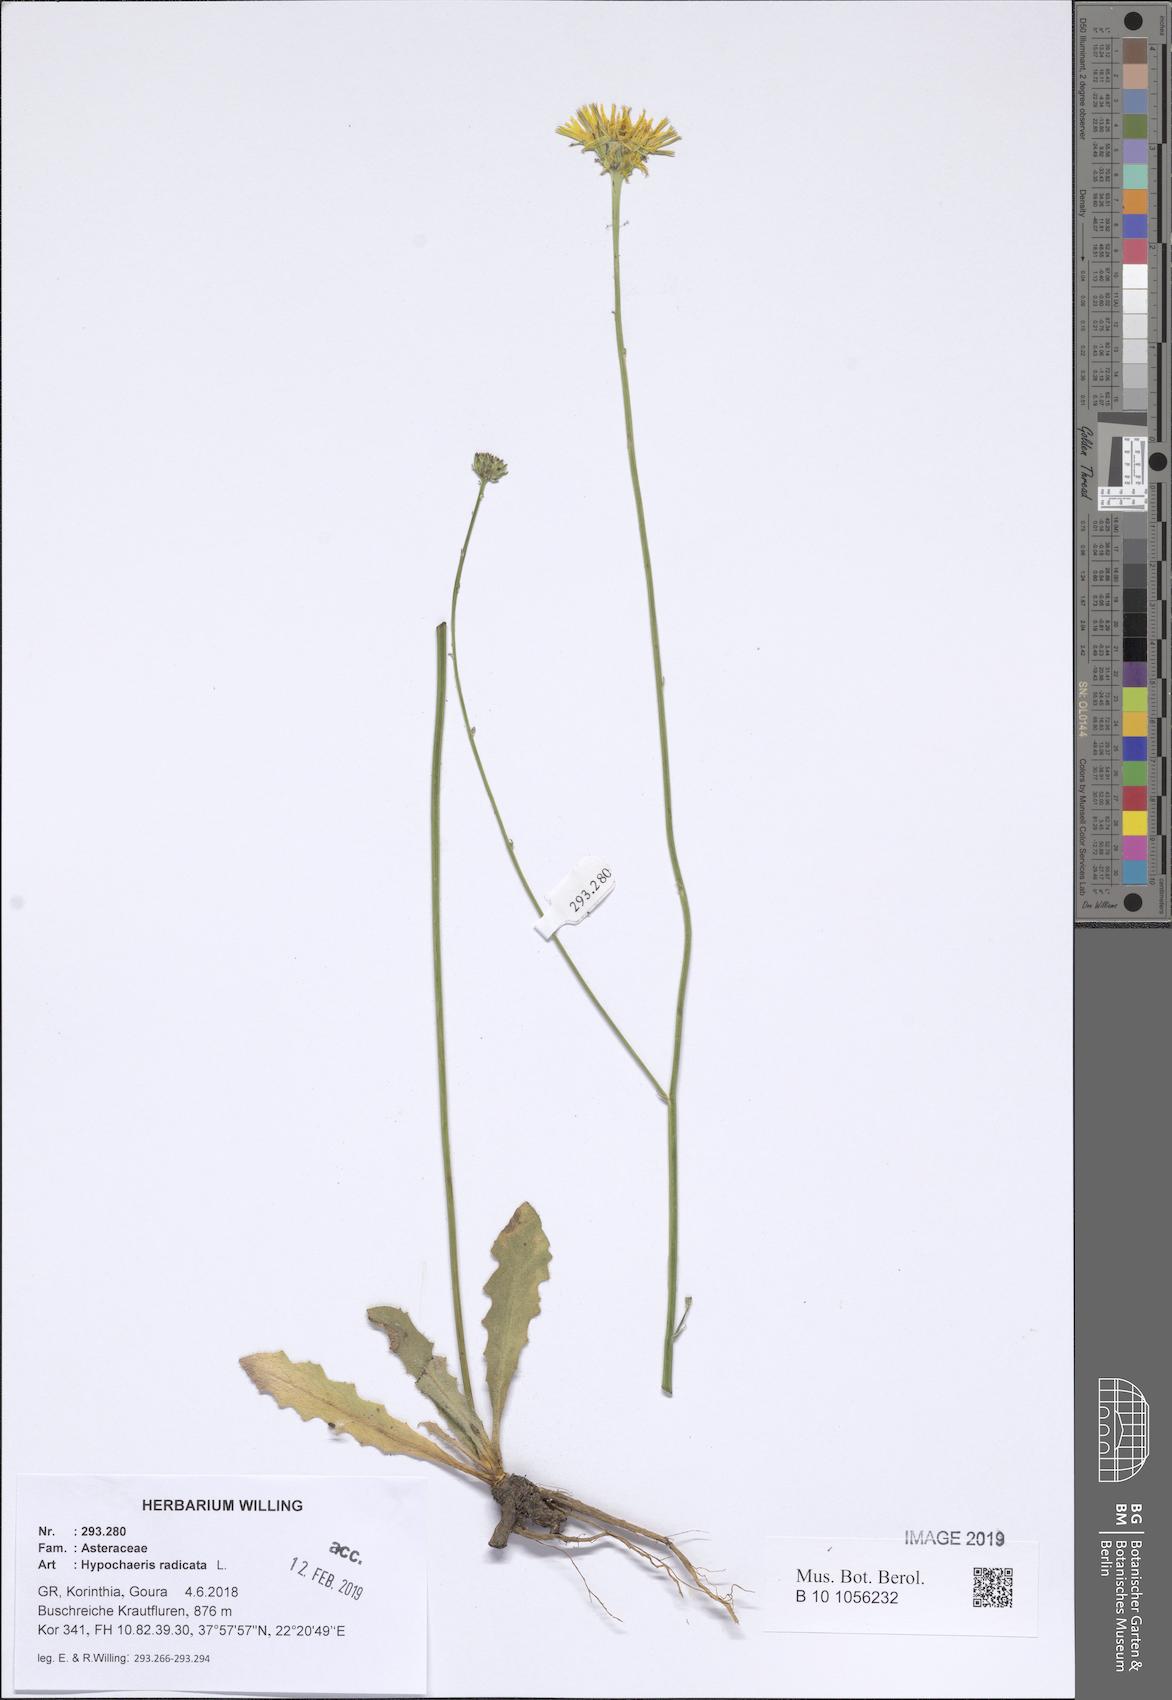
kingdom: Plantae
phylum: Tracheophyta
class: Magnoliopsida
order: Asterales
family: Asteraceae
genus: Hypochaeris
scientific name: Hypochaeris radicata
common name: Flatweed
